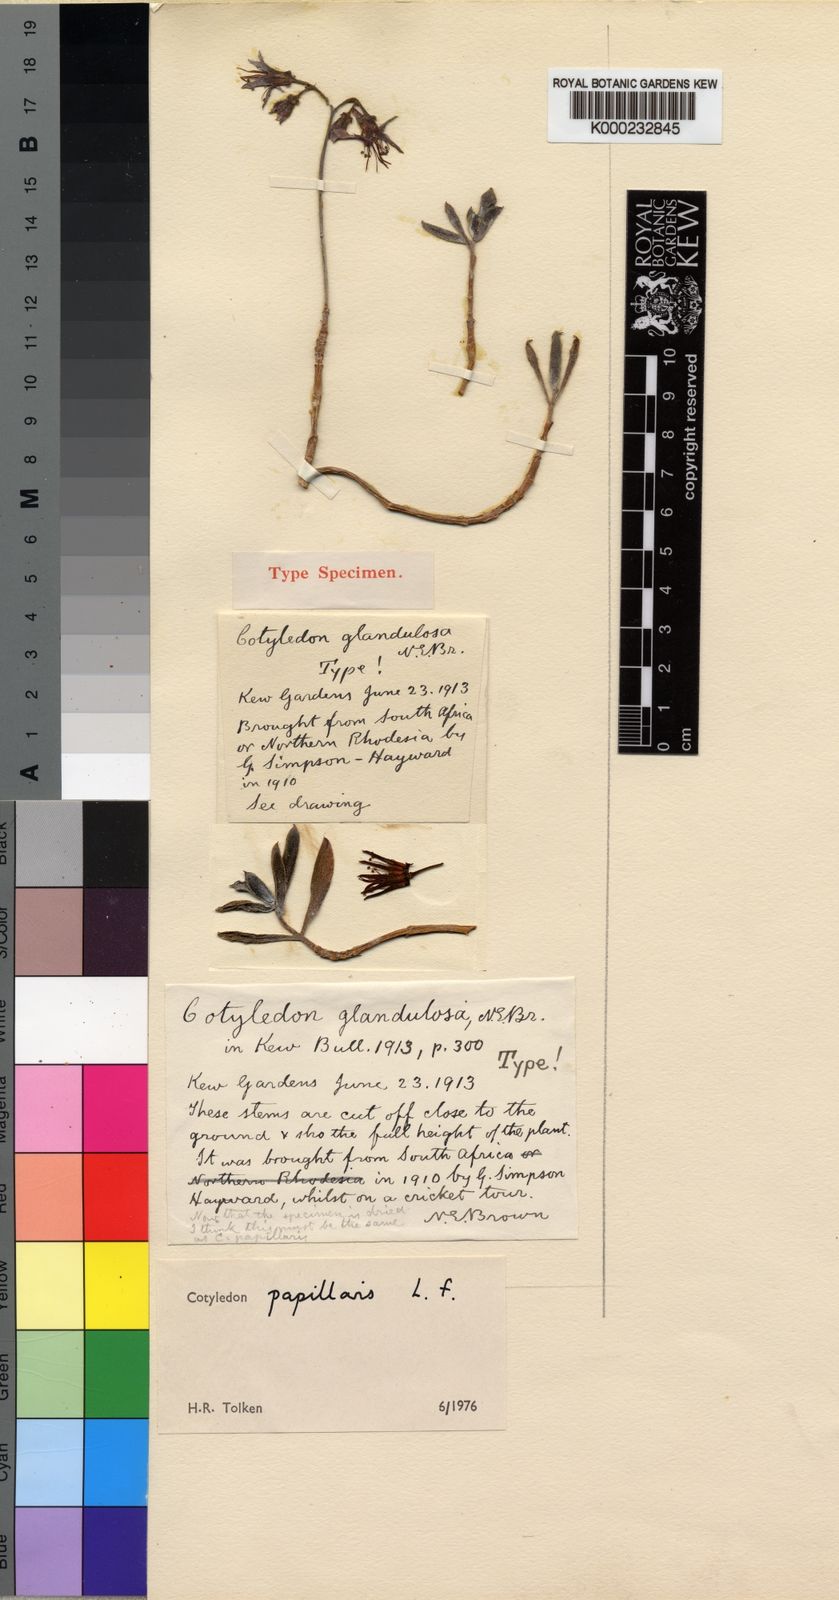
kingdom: Plantae
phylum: Tracheophyta
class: Magnoliopsida
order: Saxifragales
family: Crassulaceae
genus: Cotyledon
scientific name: Cotyledon papillaris
